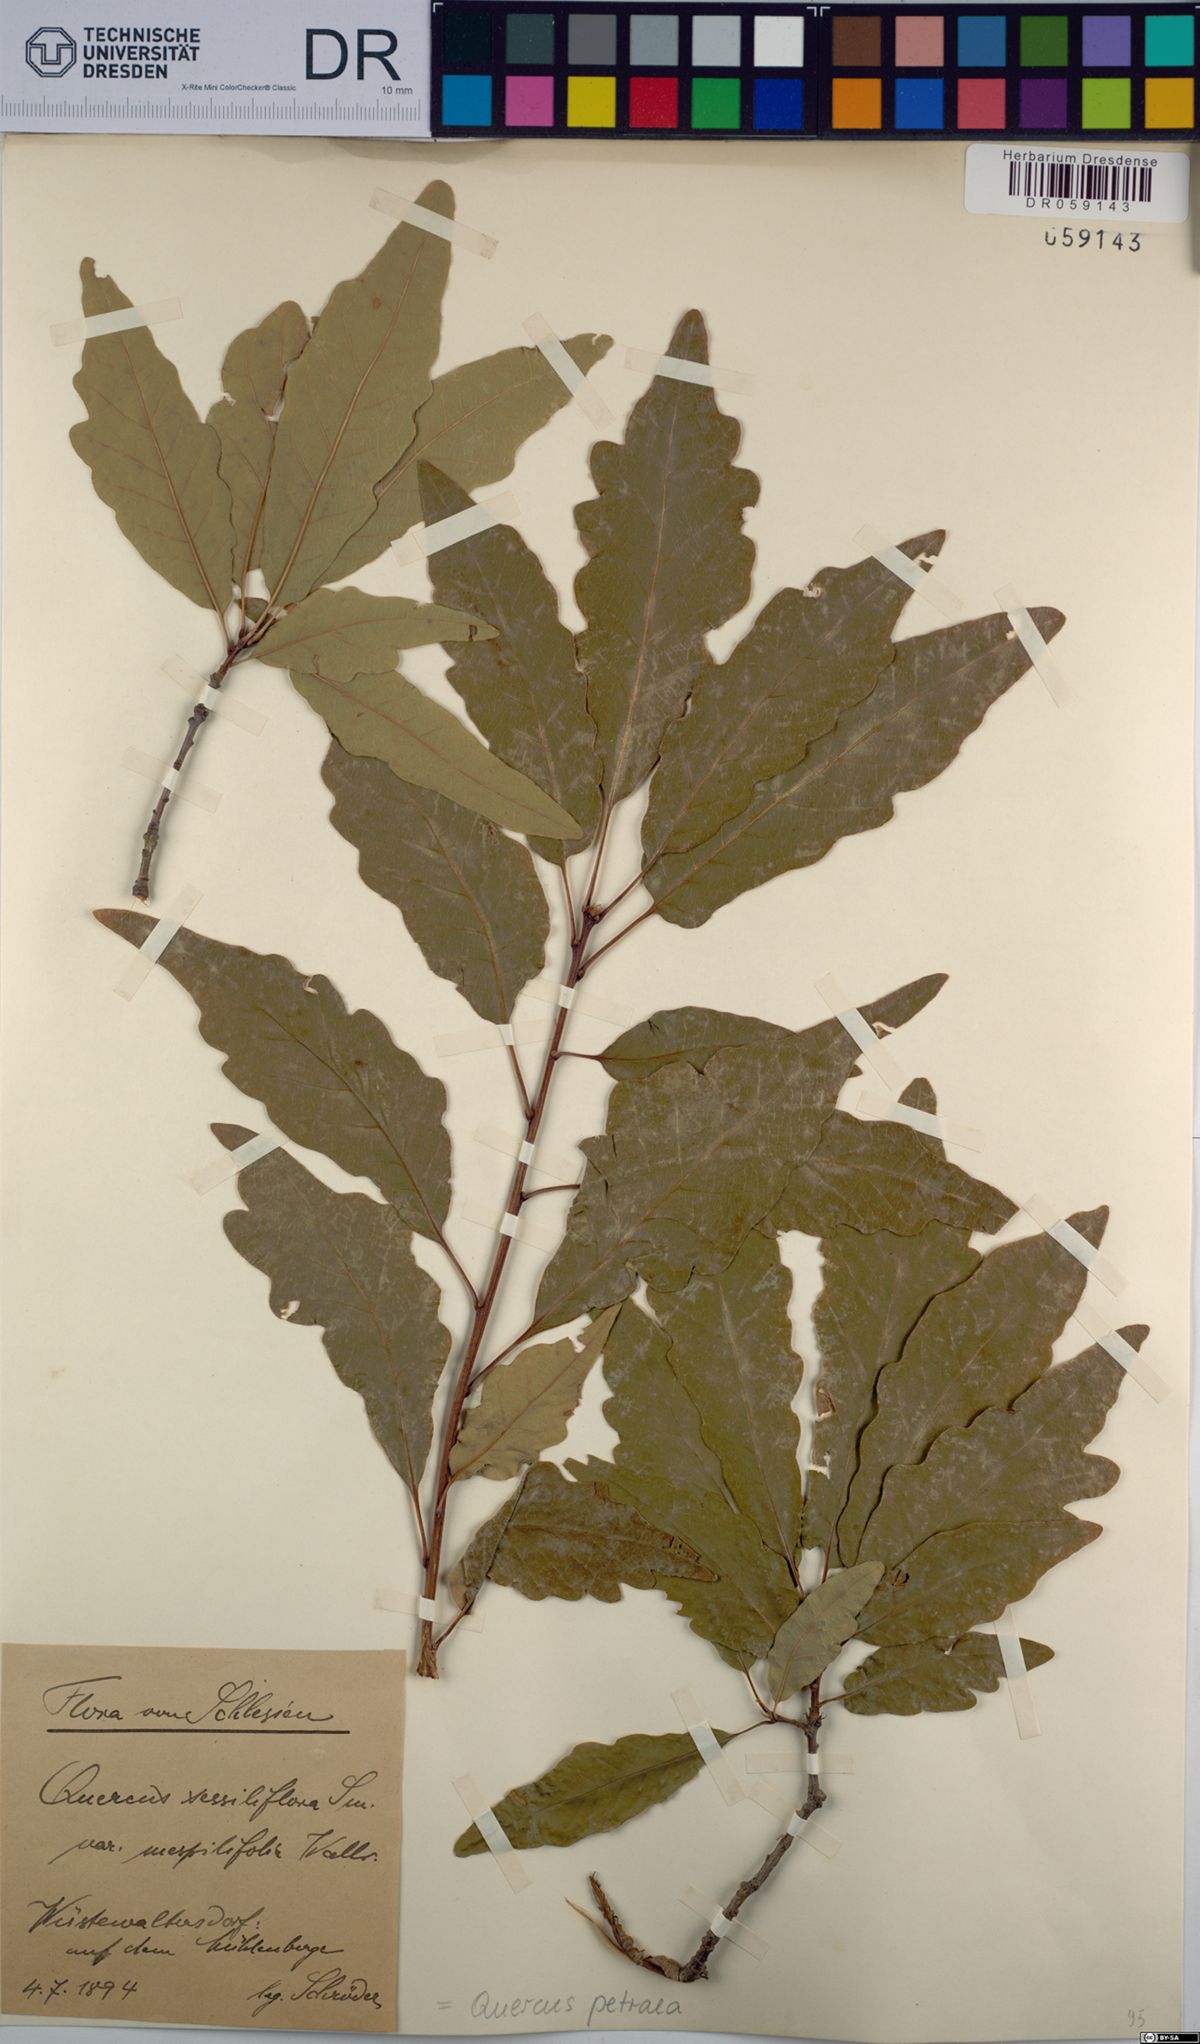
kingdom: Plantae
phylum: Tracheophyta
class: Magnoliopsida
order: Fagales
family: Fagaceae
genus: Quercus
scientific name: Quercus petraea
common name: Sessile oak
